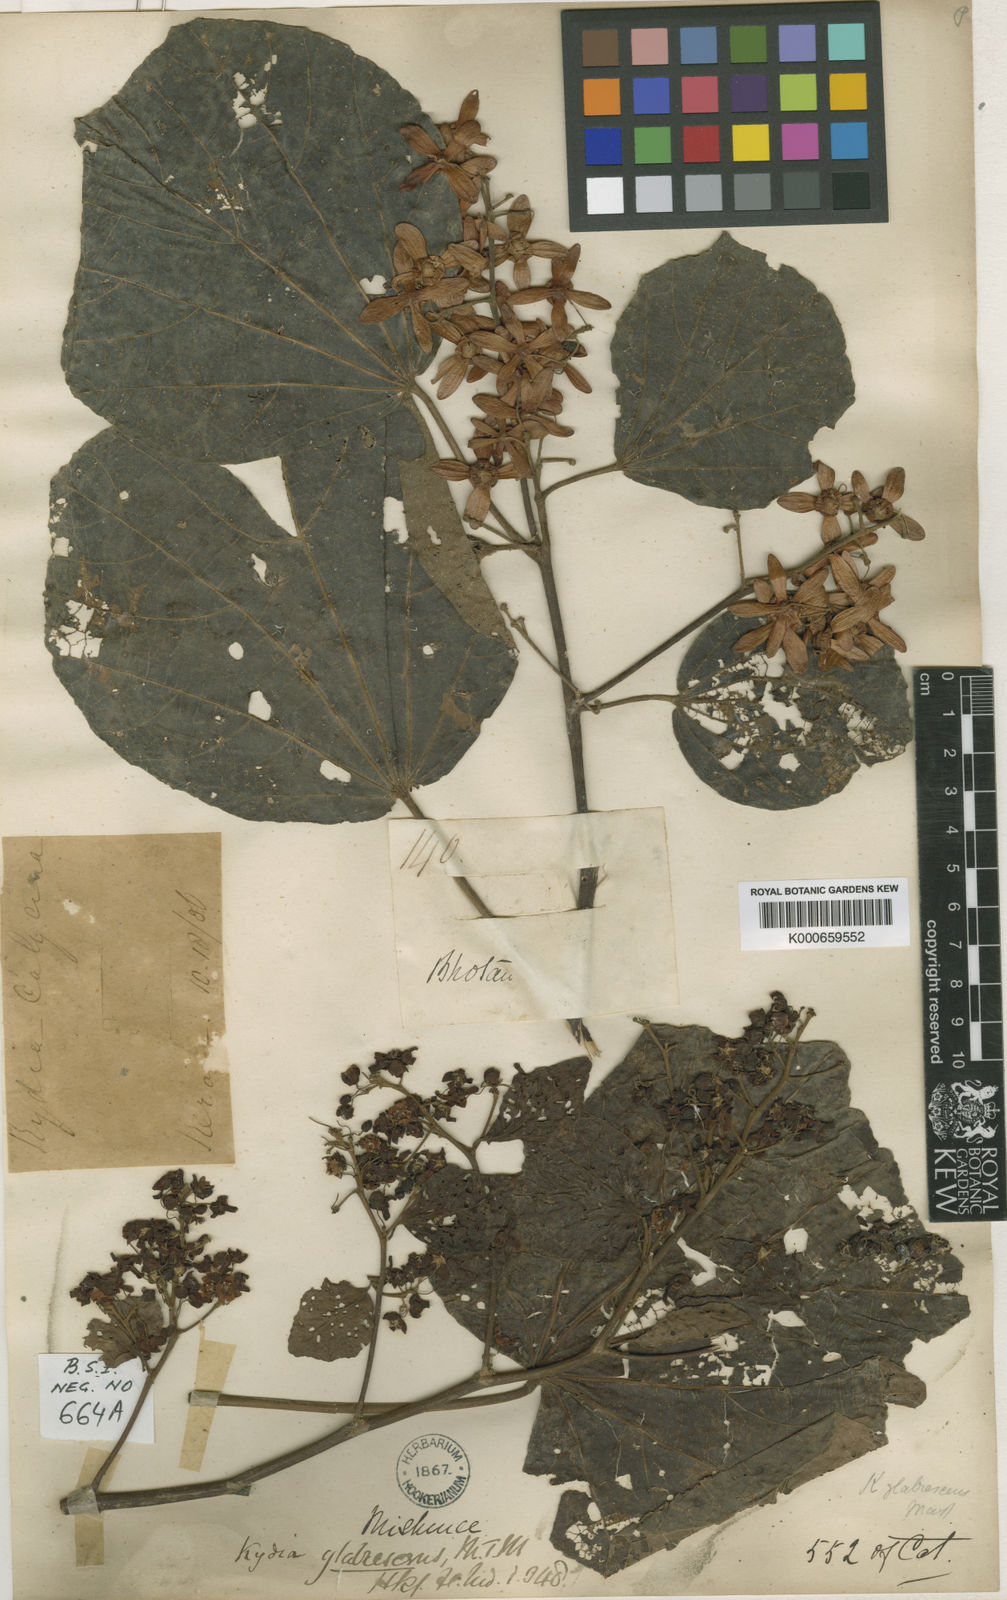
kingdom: Plantae
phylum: Tracheophyta
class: Magnoliopsida
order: Malvales
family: Malvaceae
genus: Kydia
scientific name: Kydia glabrescens
